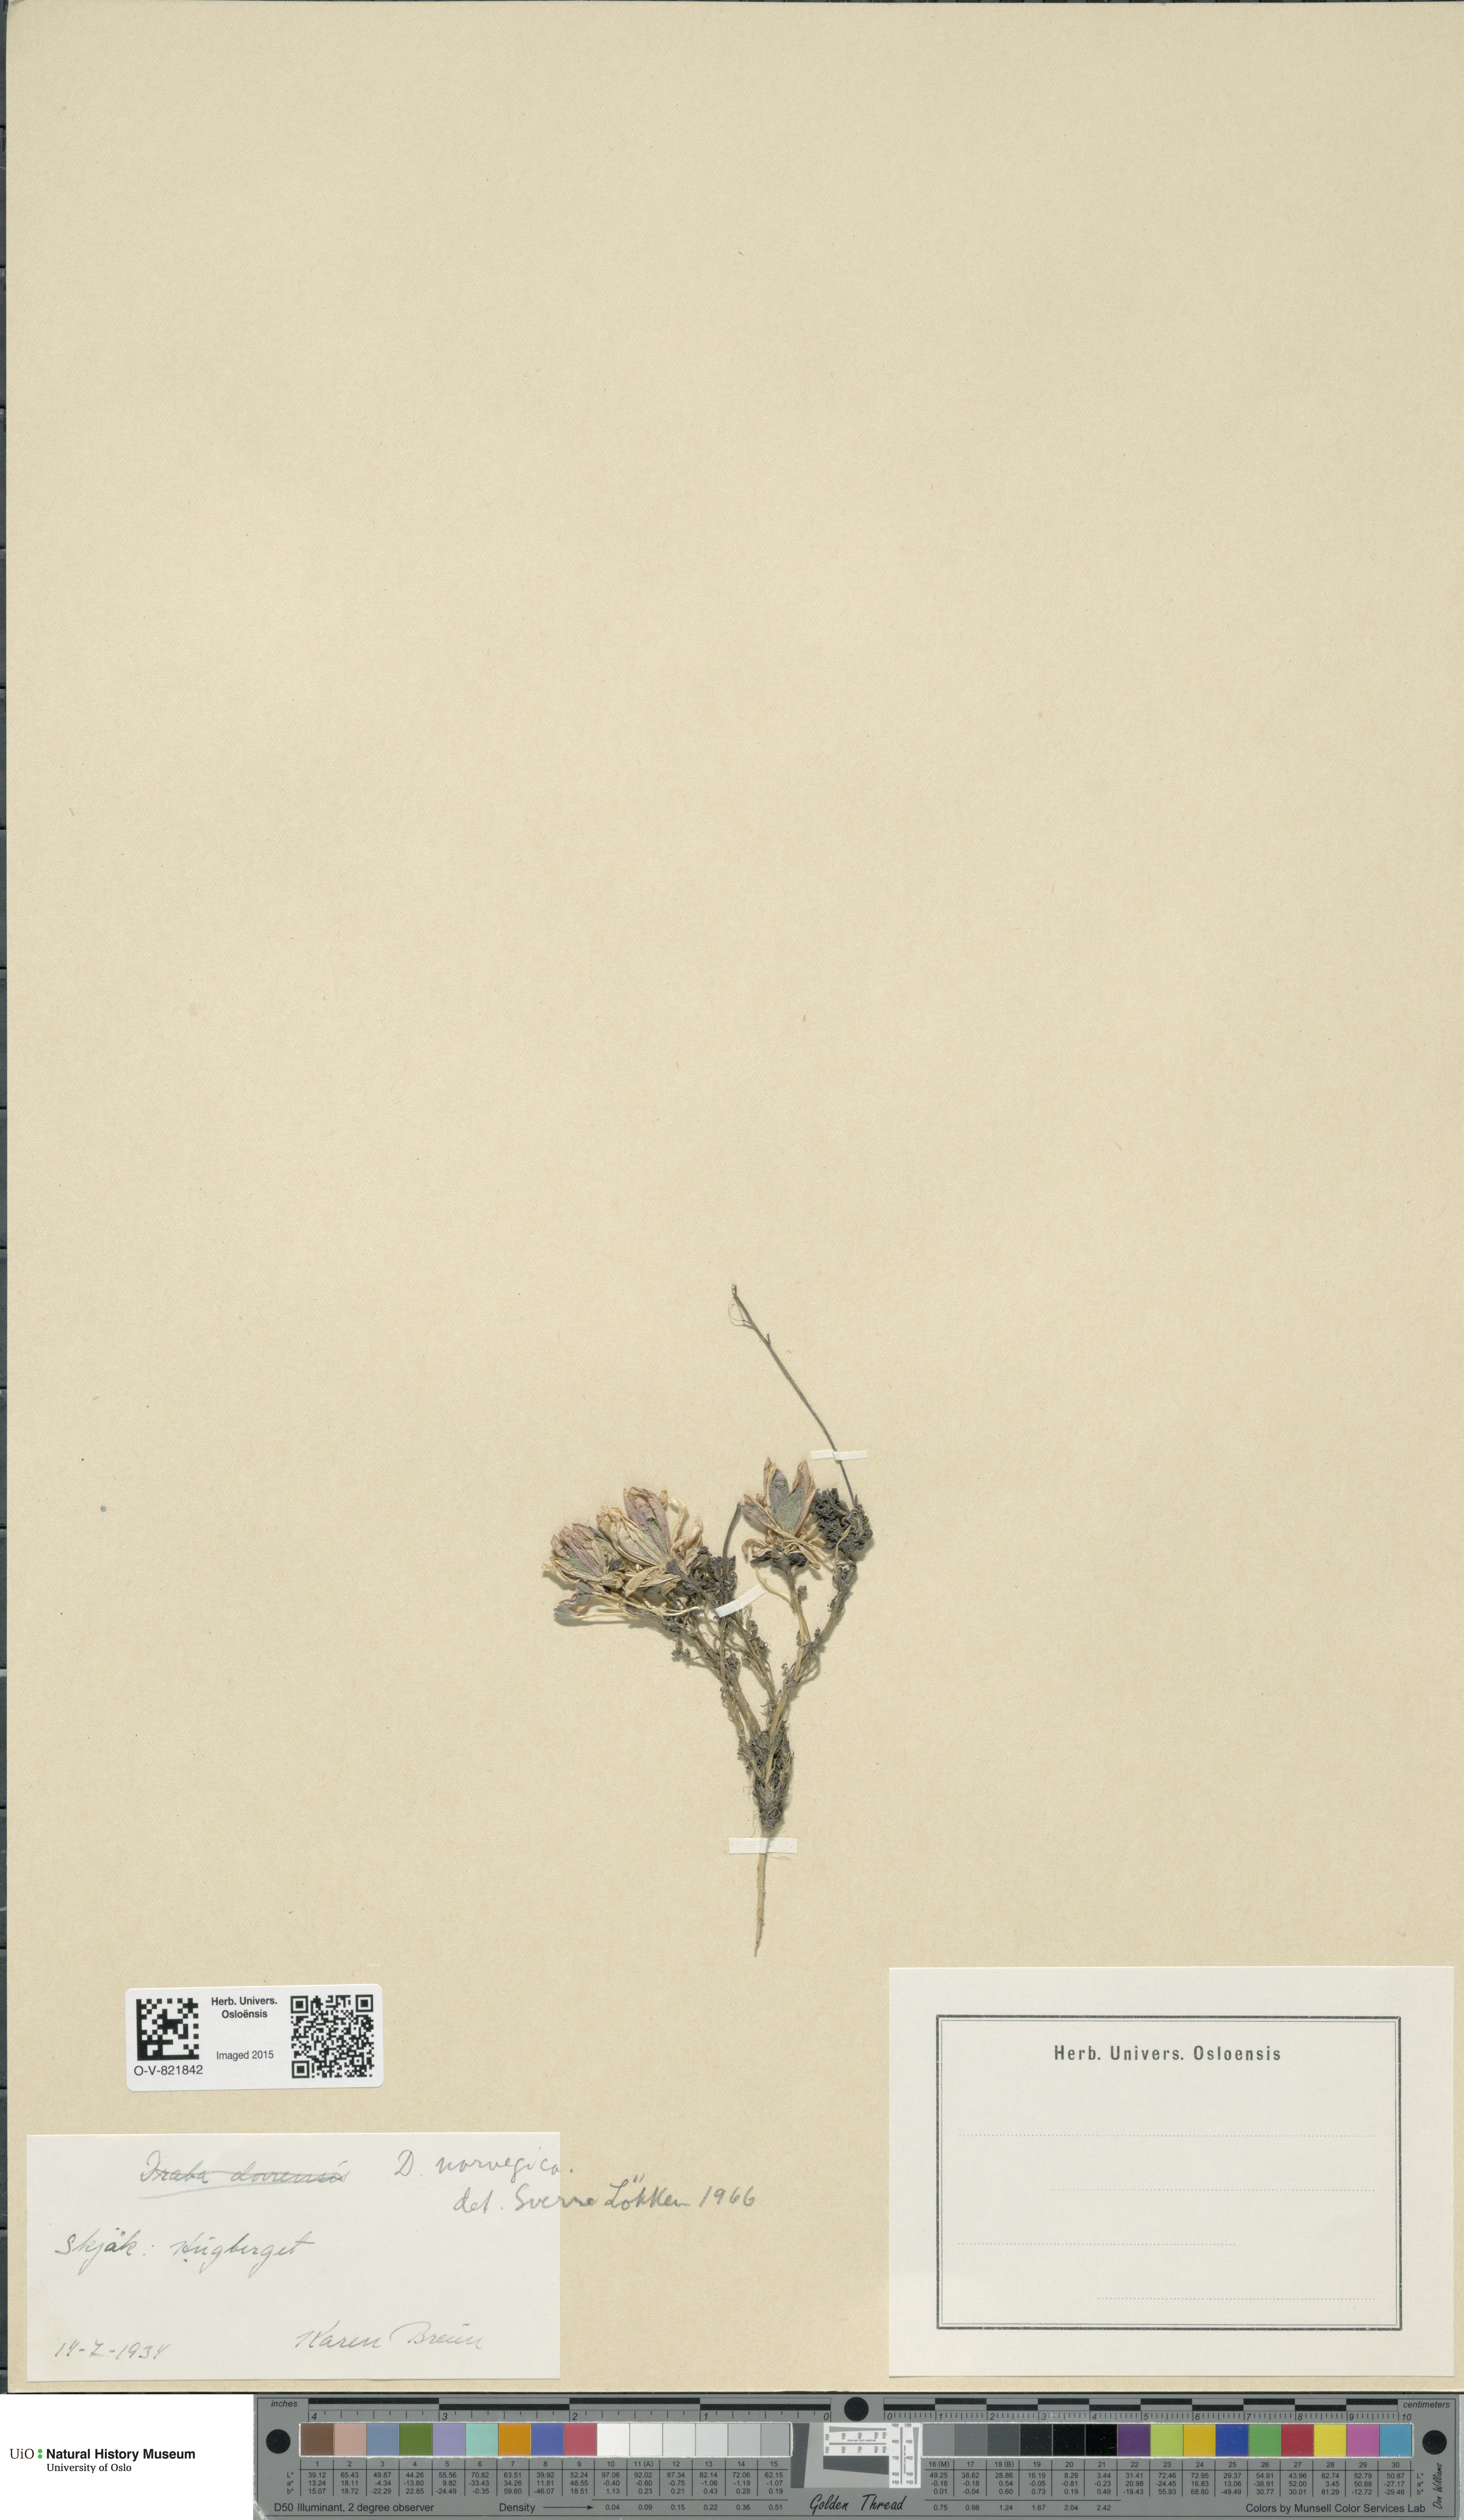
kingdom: Plantae
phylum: Tracheophyta
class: Magnoliopsida
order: Brassicales
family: Brassicaceae
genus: Draba
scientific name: Draba norvegica
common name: Rock whitlowgrass
